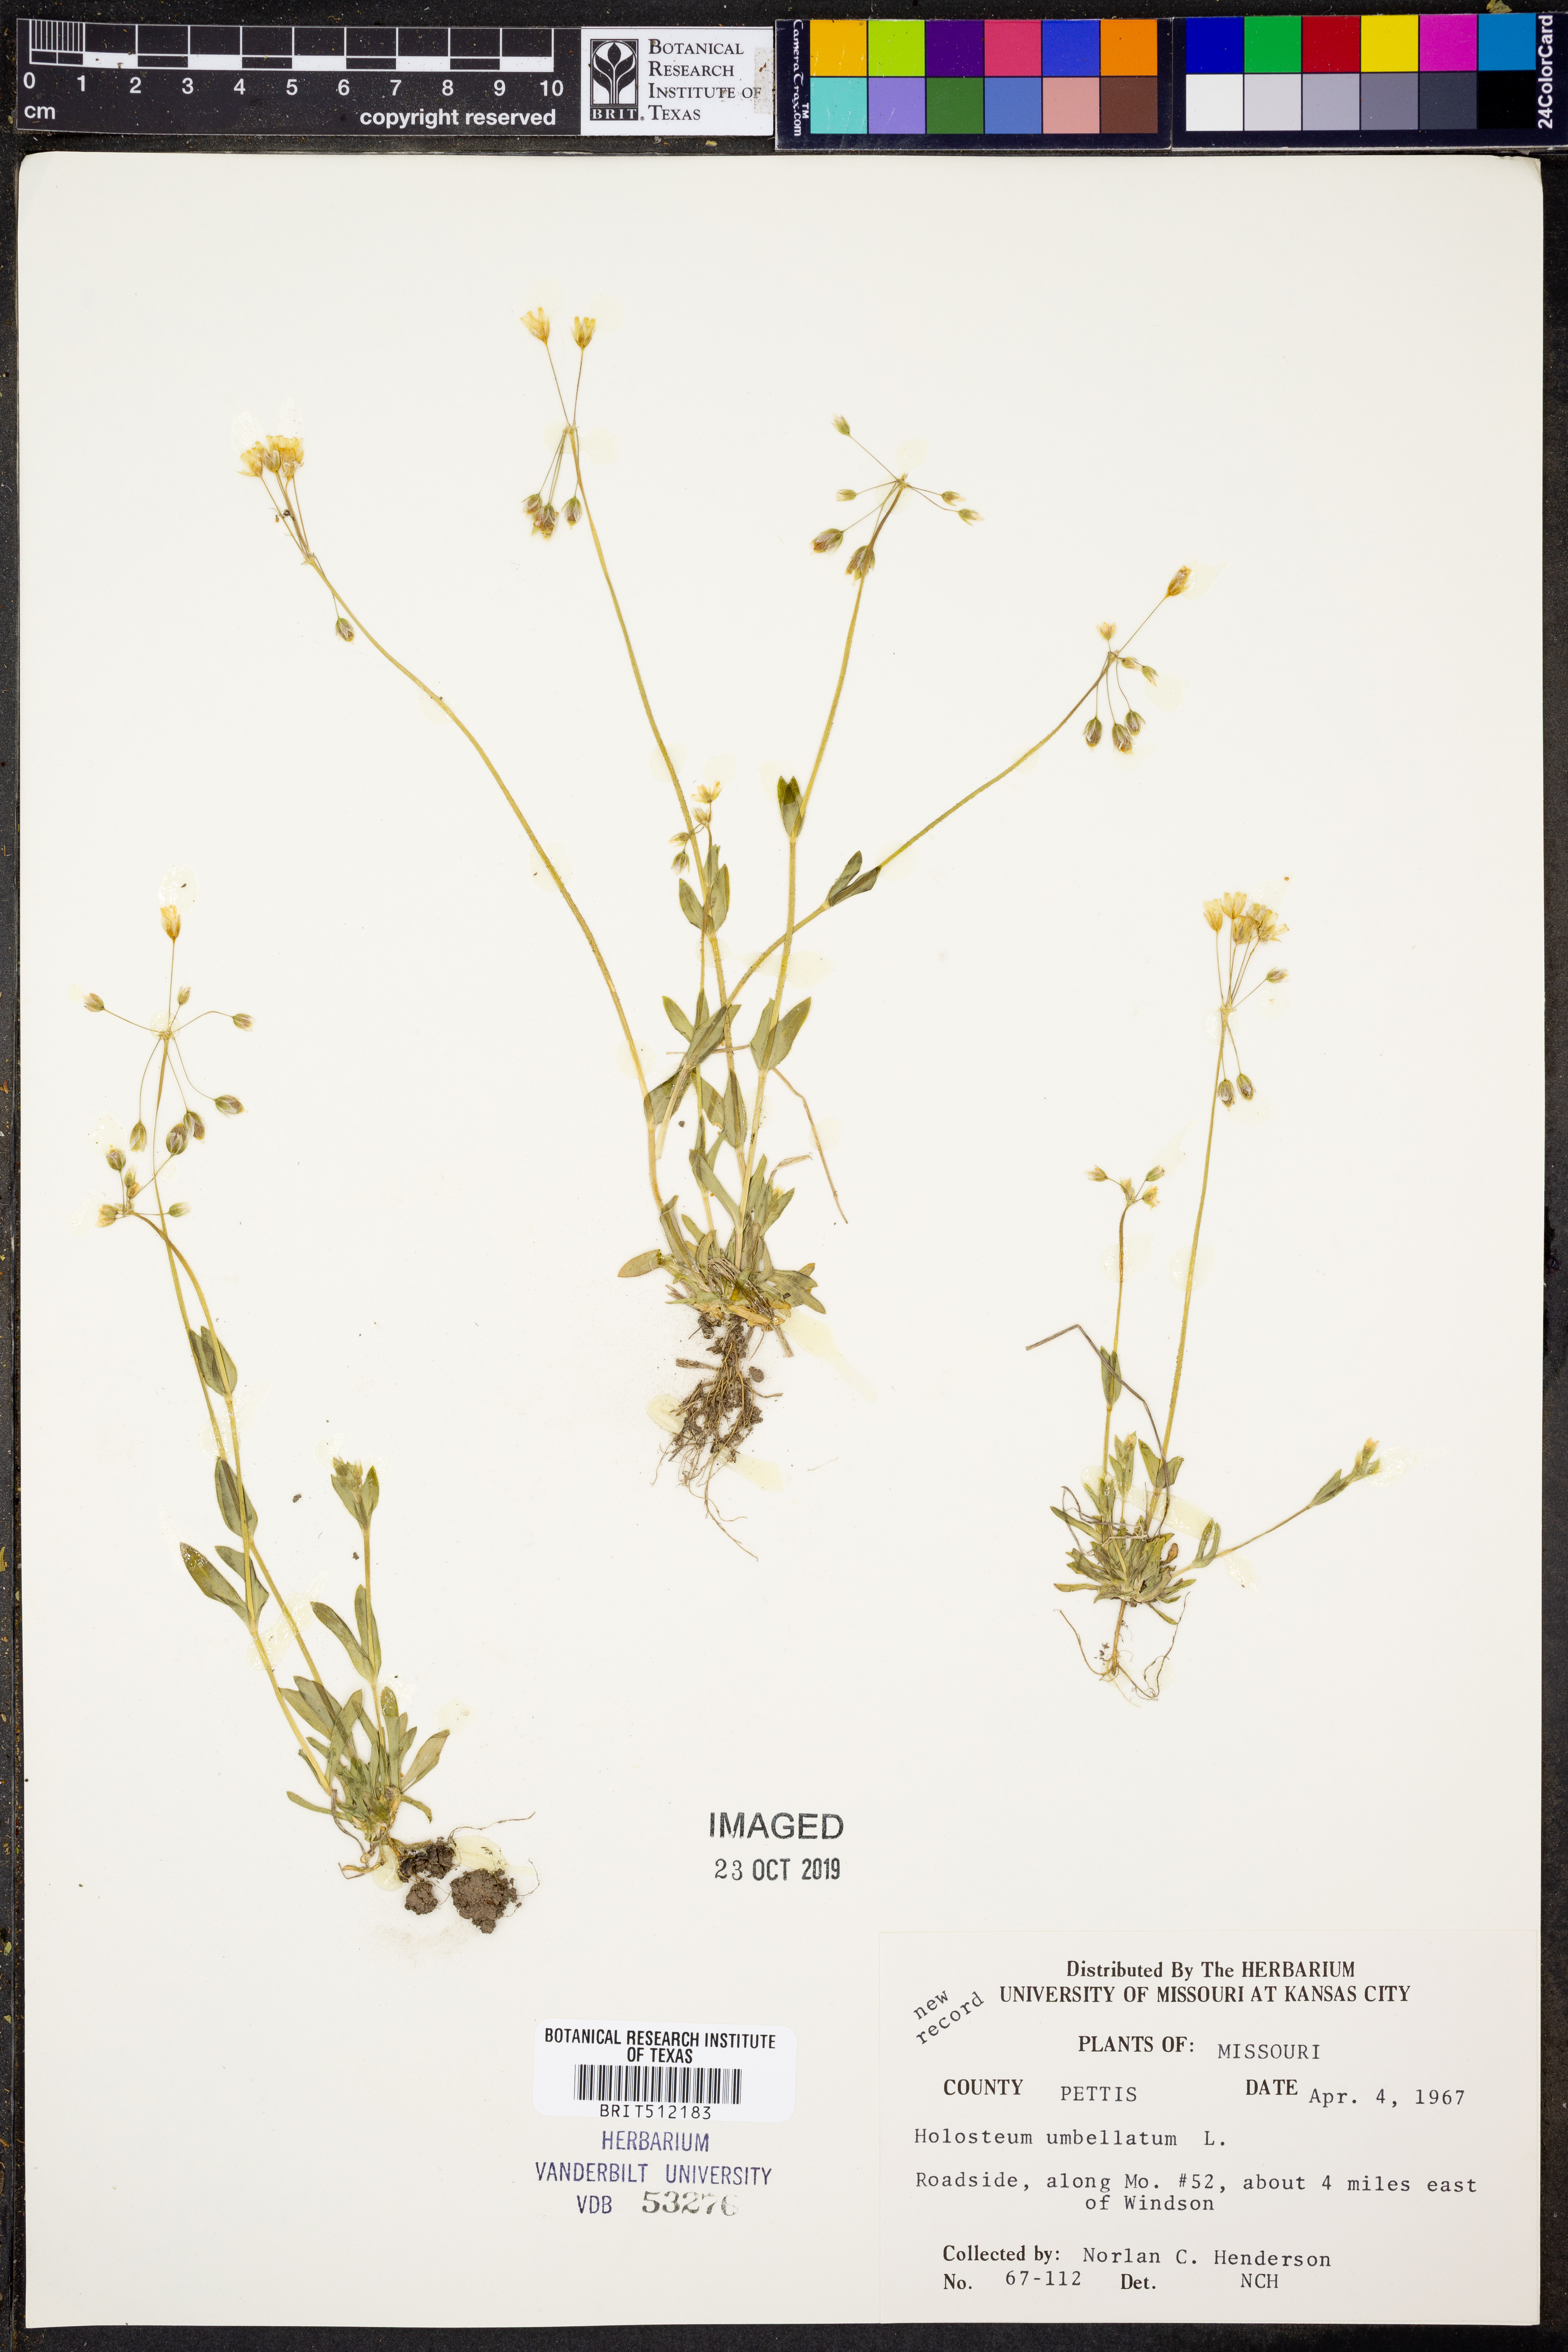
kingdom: Plantae
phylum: Tracheophyta
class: Magnoliopsida
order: Caryophyllales
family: Caryophyllaceae
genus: Holosteum
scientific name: Holosteum umbellatum
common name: Jagged chickweed
